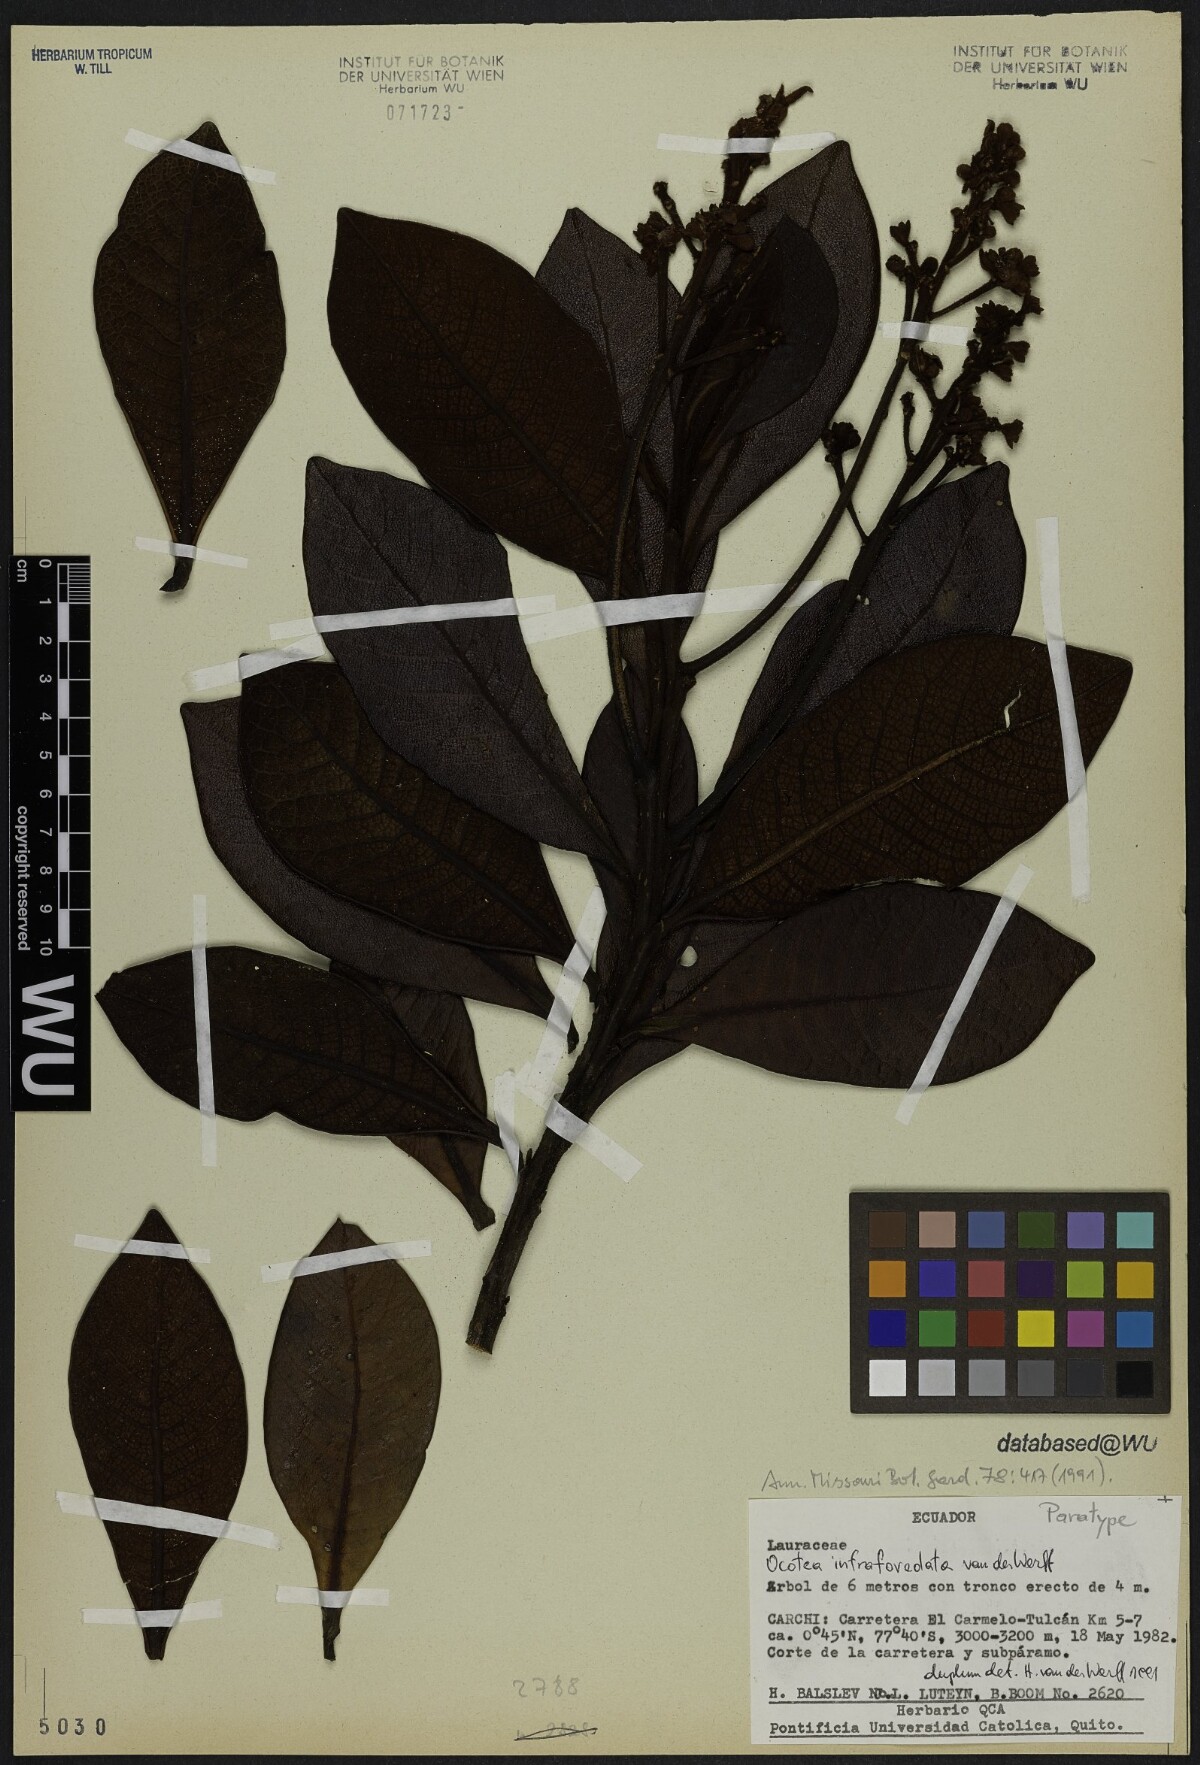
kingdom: Plantae
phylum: Tracheophyta
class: Magnoliopsida
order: Laurales
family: Lauraceae
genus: Andea
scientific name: Andea infrafoveolata
